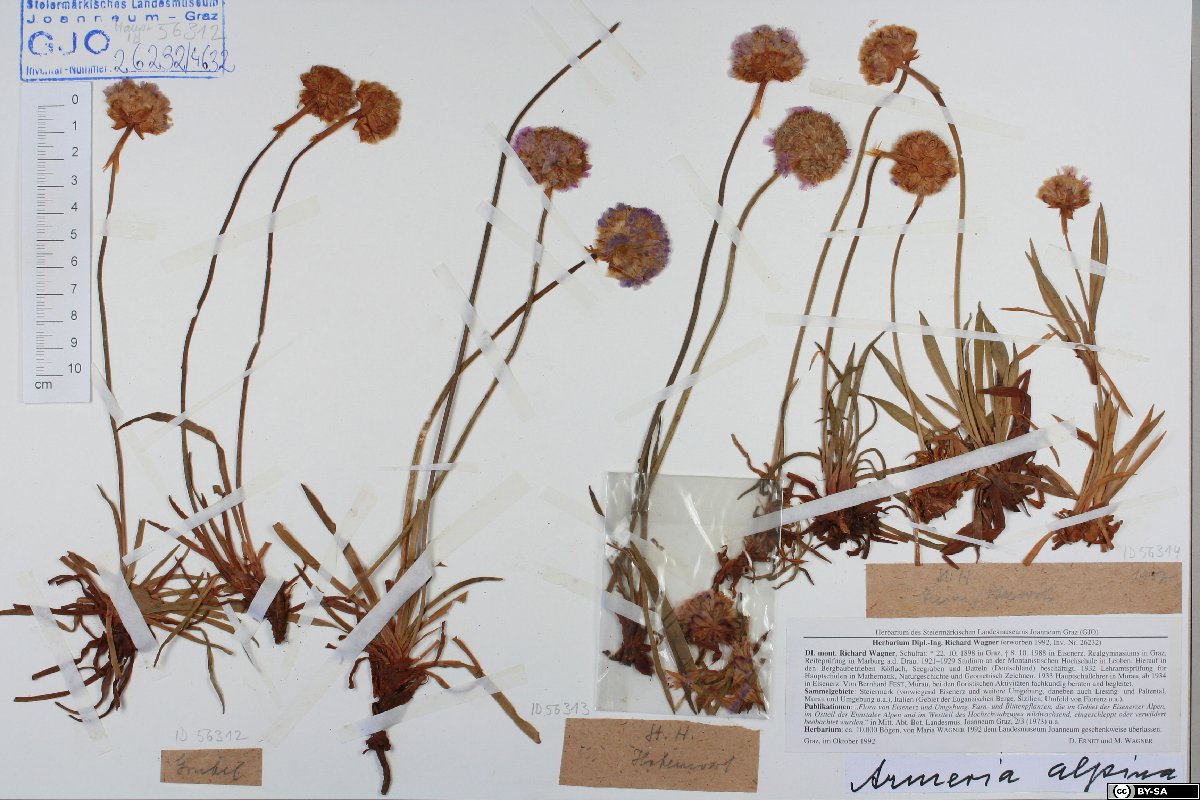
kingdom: Plantae
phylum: Tracheophyta
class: Magnoliopsida
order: Caryophyllales
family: Plumbaginaceae
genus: Armeria
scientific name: Armeria alpina
